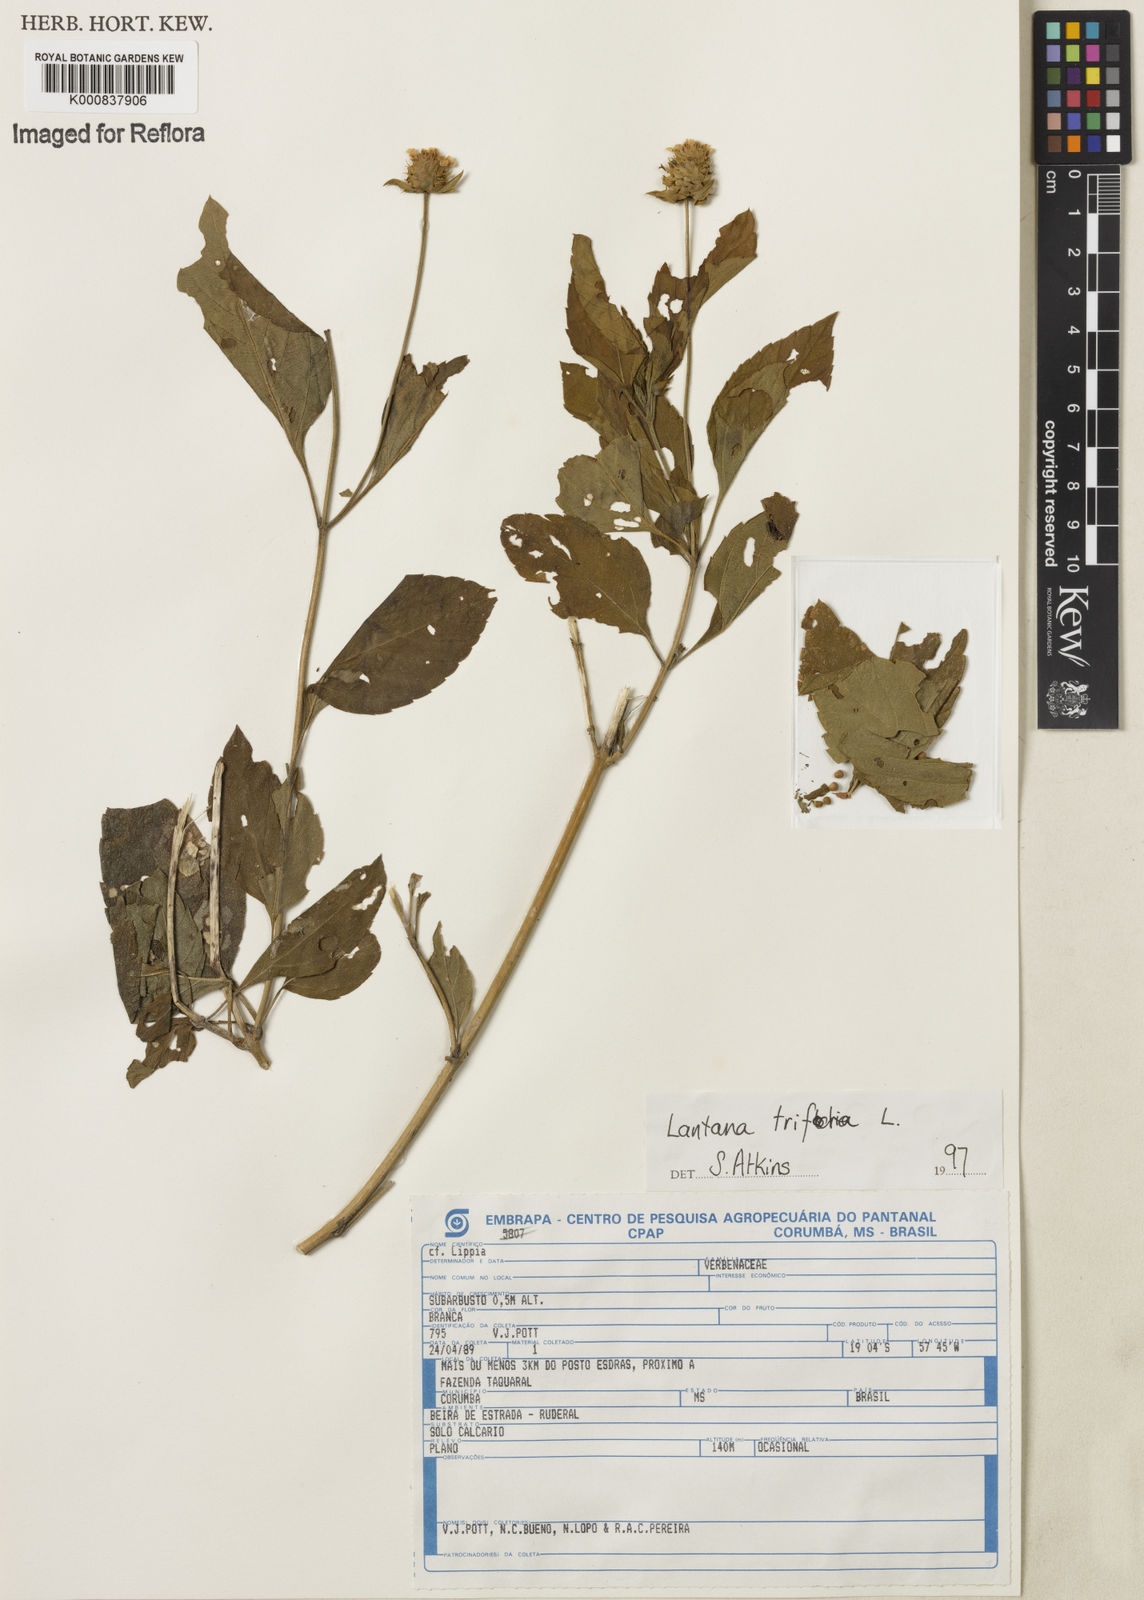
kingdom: Plantae
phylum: Tracheophyta
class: Magnoliopsida
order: Lamiales
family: Verbenaceae
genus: Lantana
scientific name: Lantana trifolia
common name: Sweet-sage
